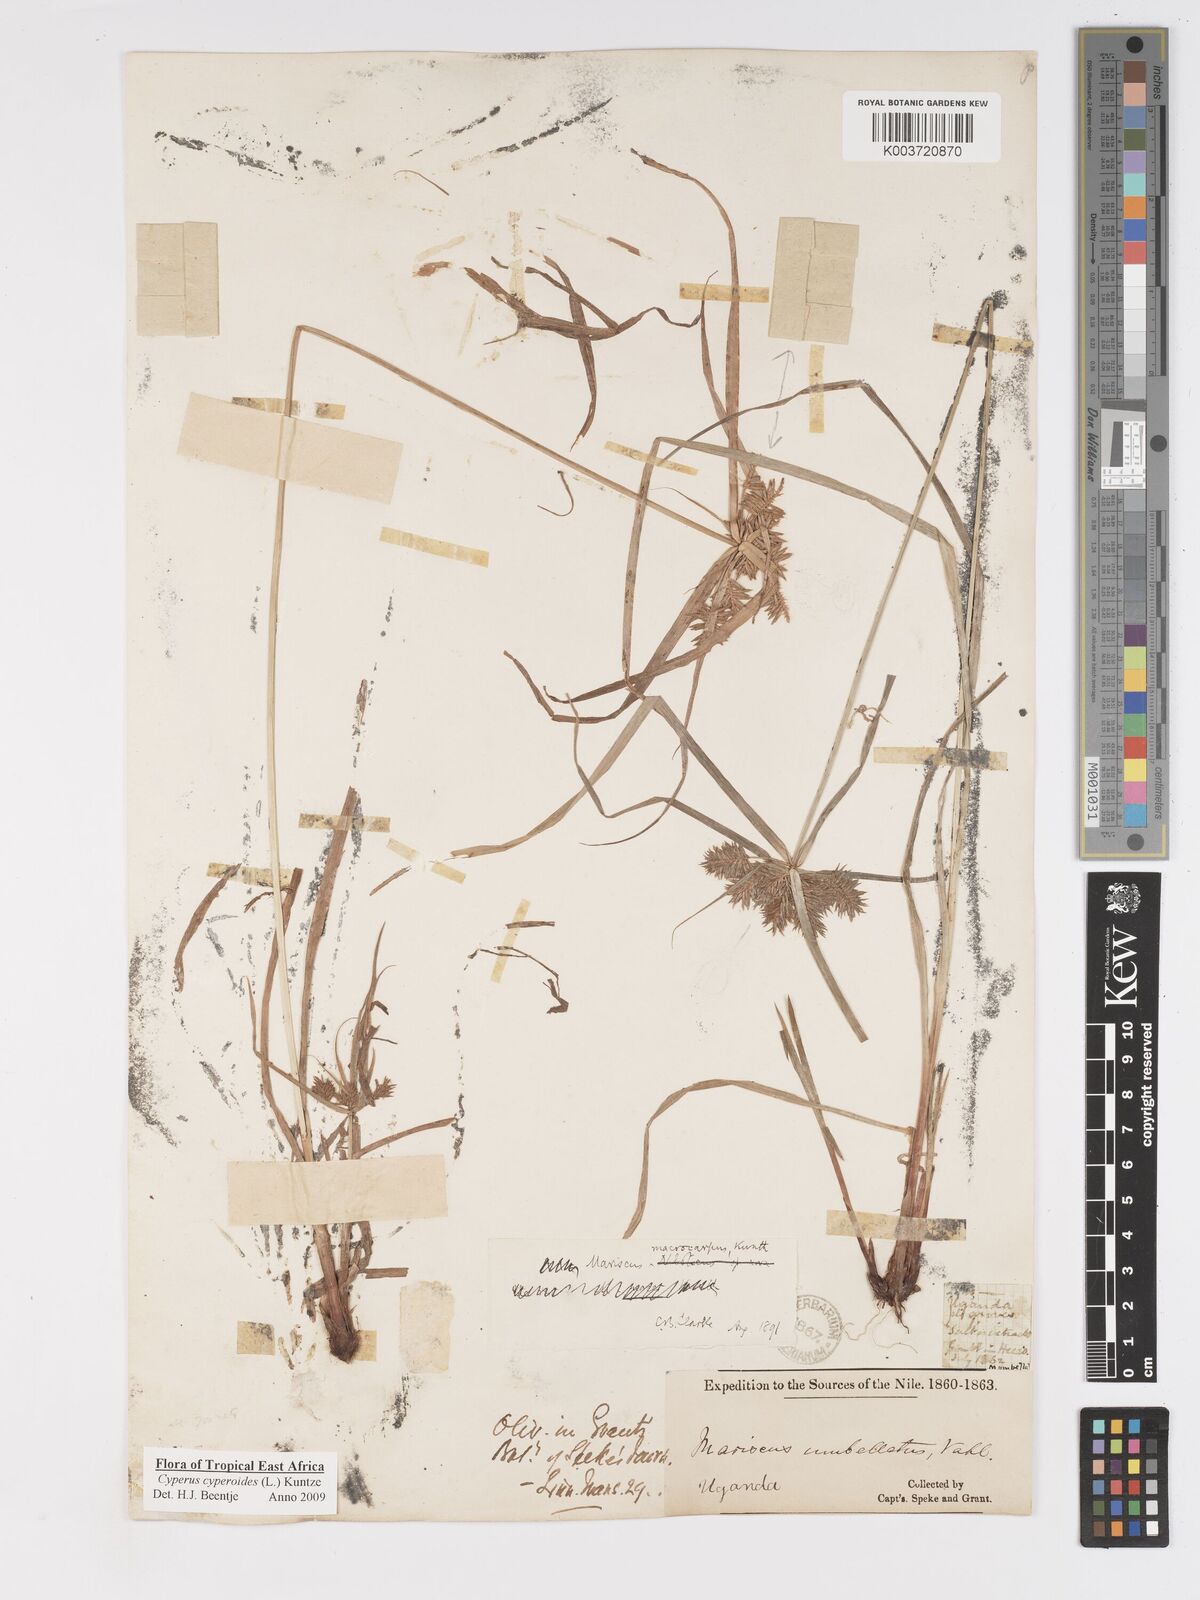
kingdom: Plantae
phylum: Tracheophyta
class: Liliopsida
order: Poales
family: Cyperaceae
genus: Cyperus
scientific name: Cyperus macrocarpus
